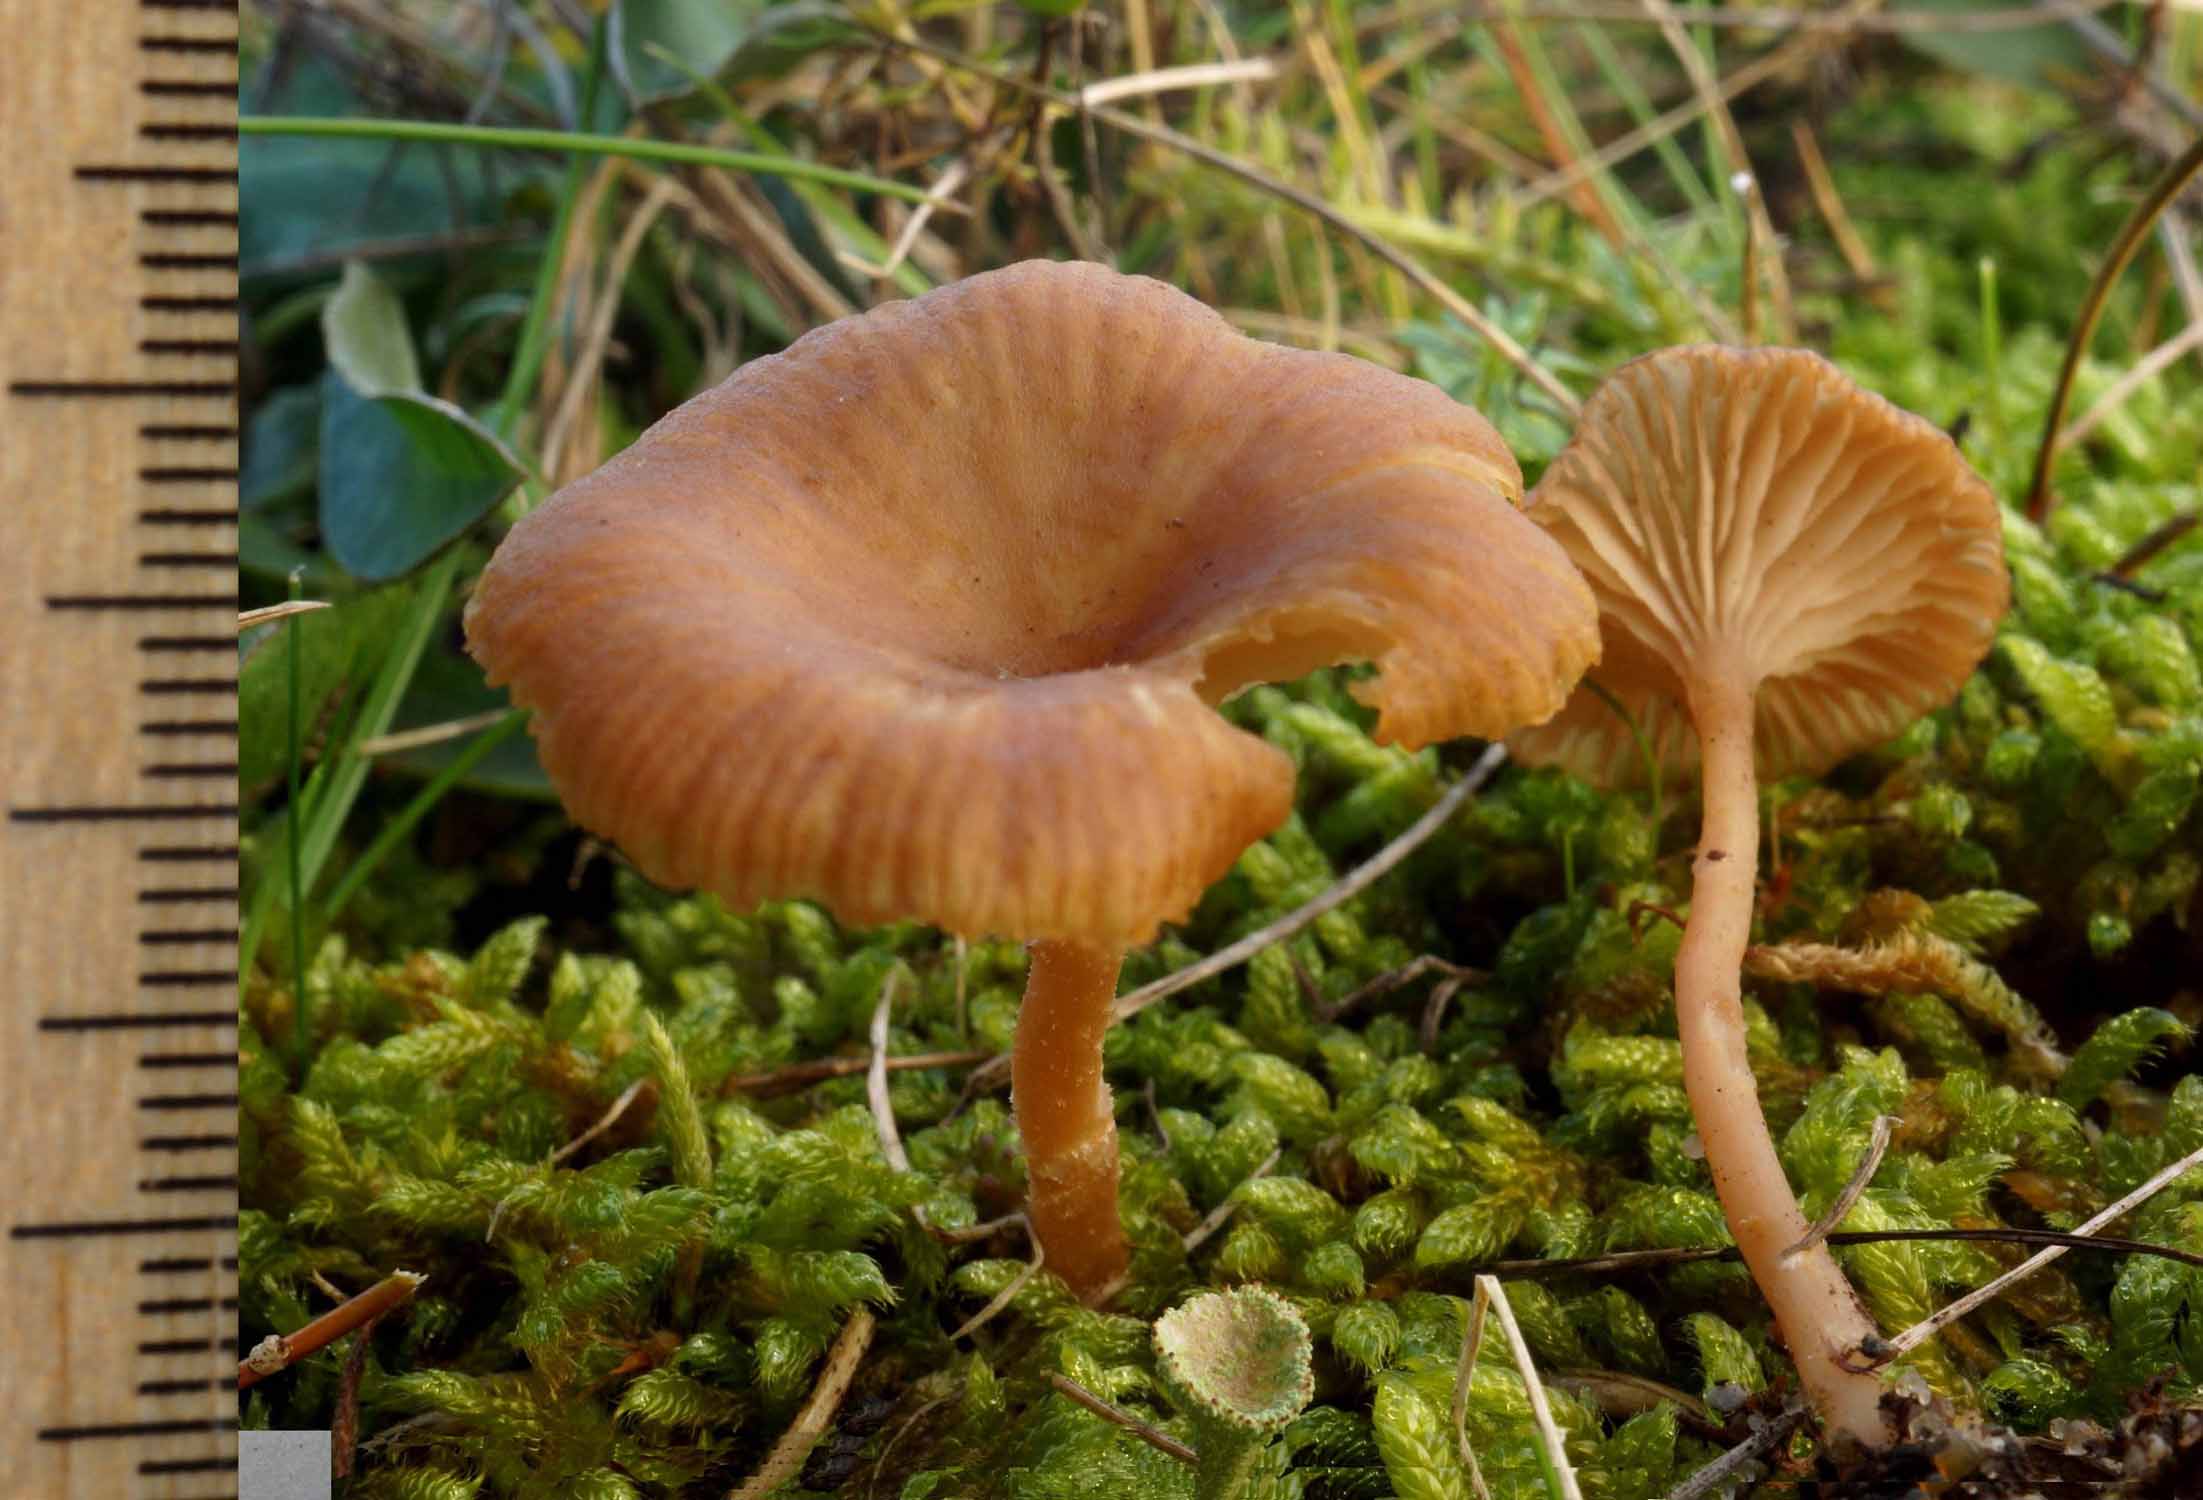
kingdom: Fungi
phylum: Basidiomycota
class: Agaricomycetes
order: Agaricales
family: Tricholomataceae
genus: Omphalina
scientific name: Omphalina pyxidata
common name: rødbrun navlehat
